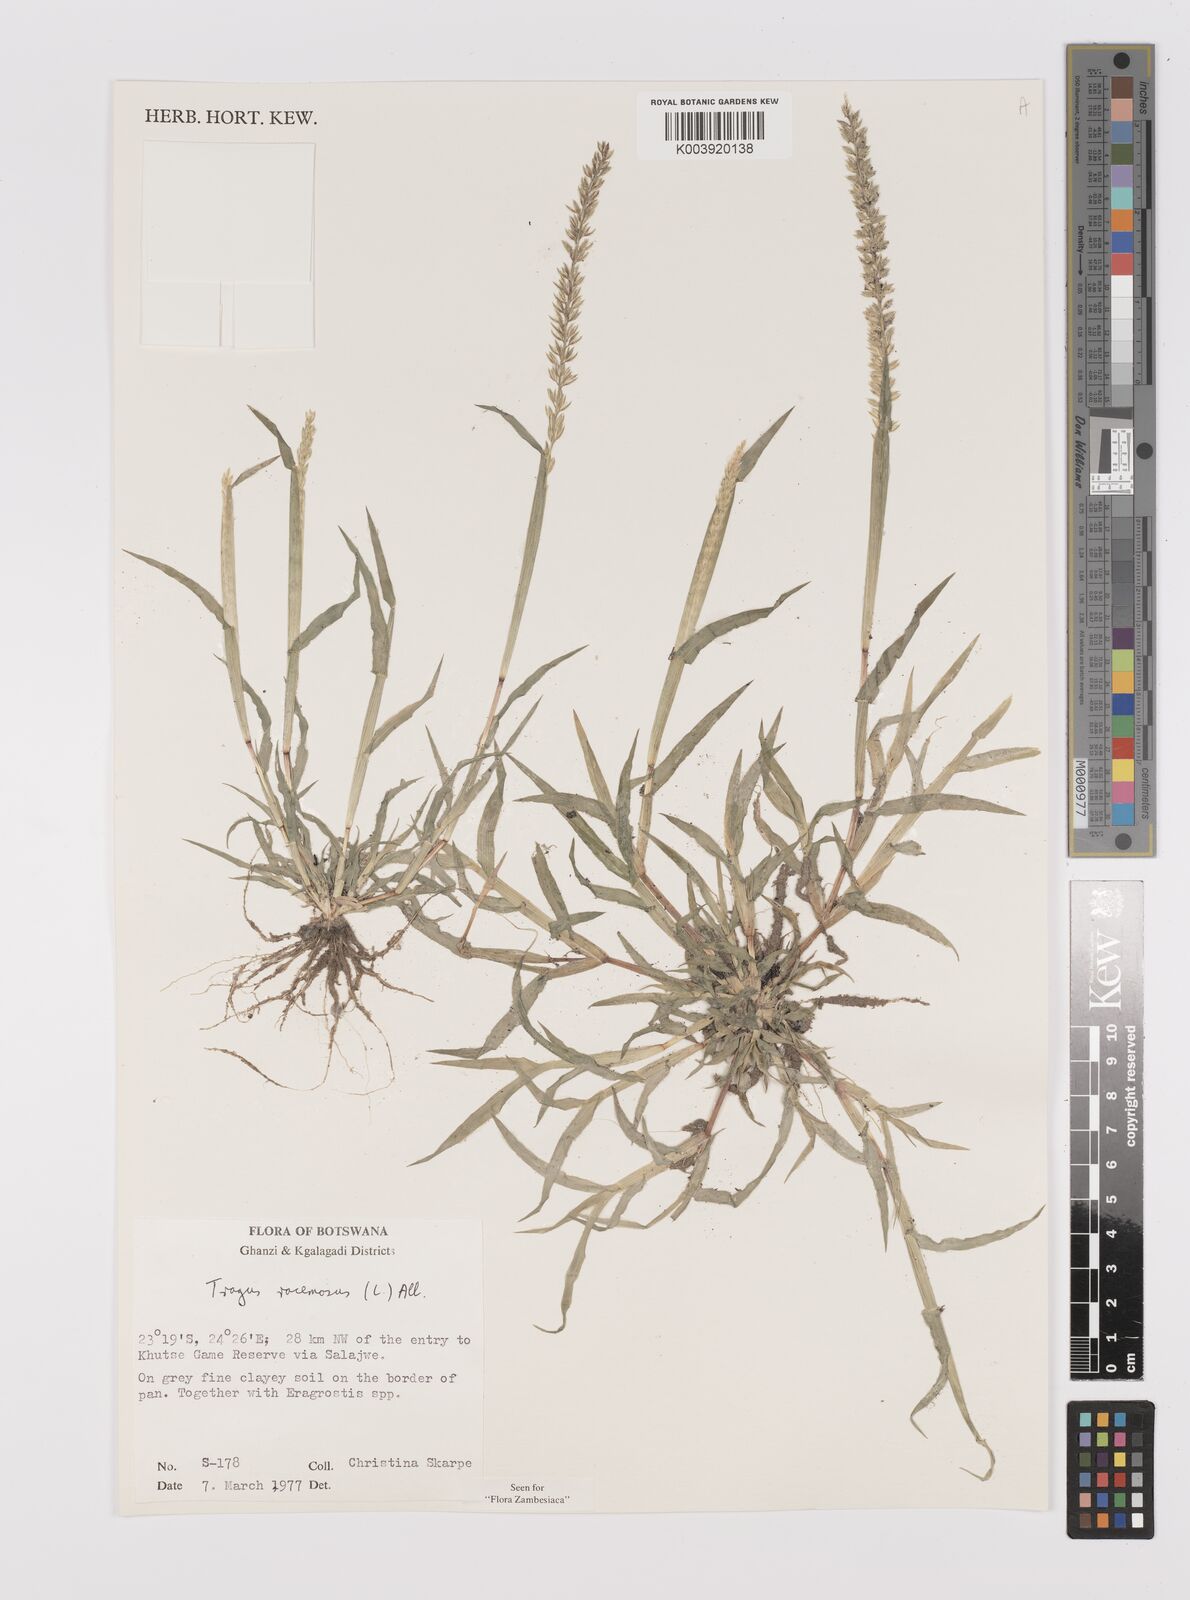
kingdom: Plantae
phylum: Tracheophyta
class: Liliopsida
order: Poales
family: Poaceae
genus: Tragus
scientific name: Tragus racemosus
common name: European bur-grass
